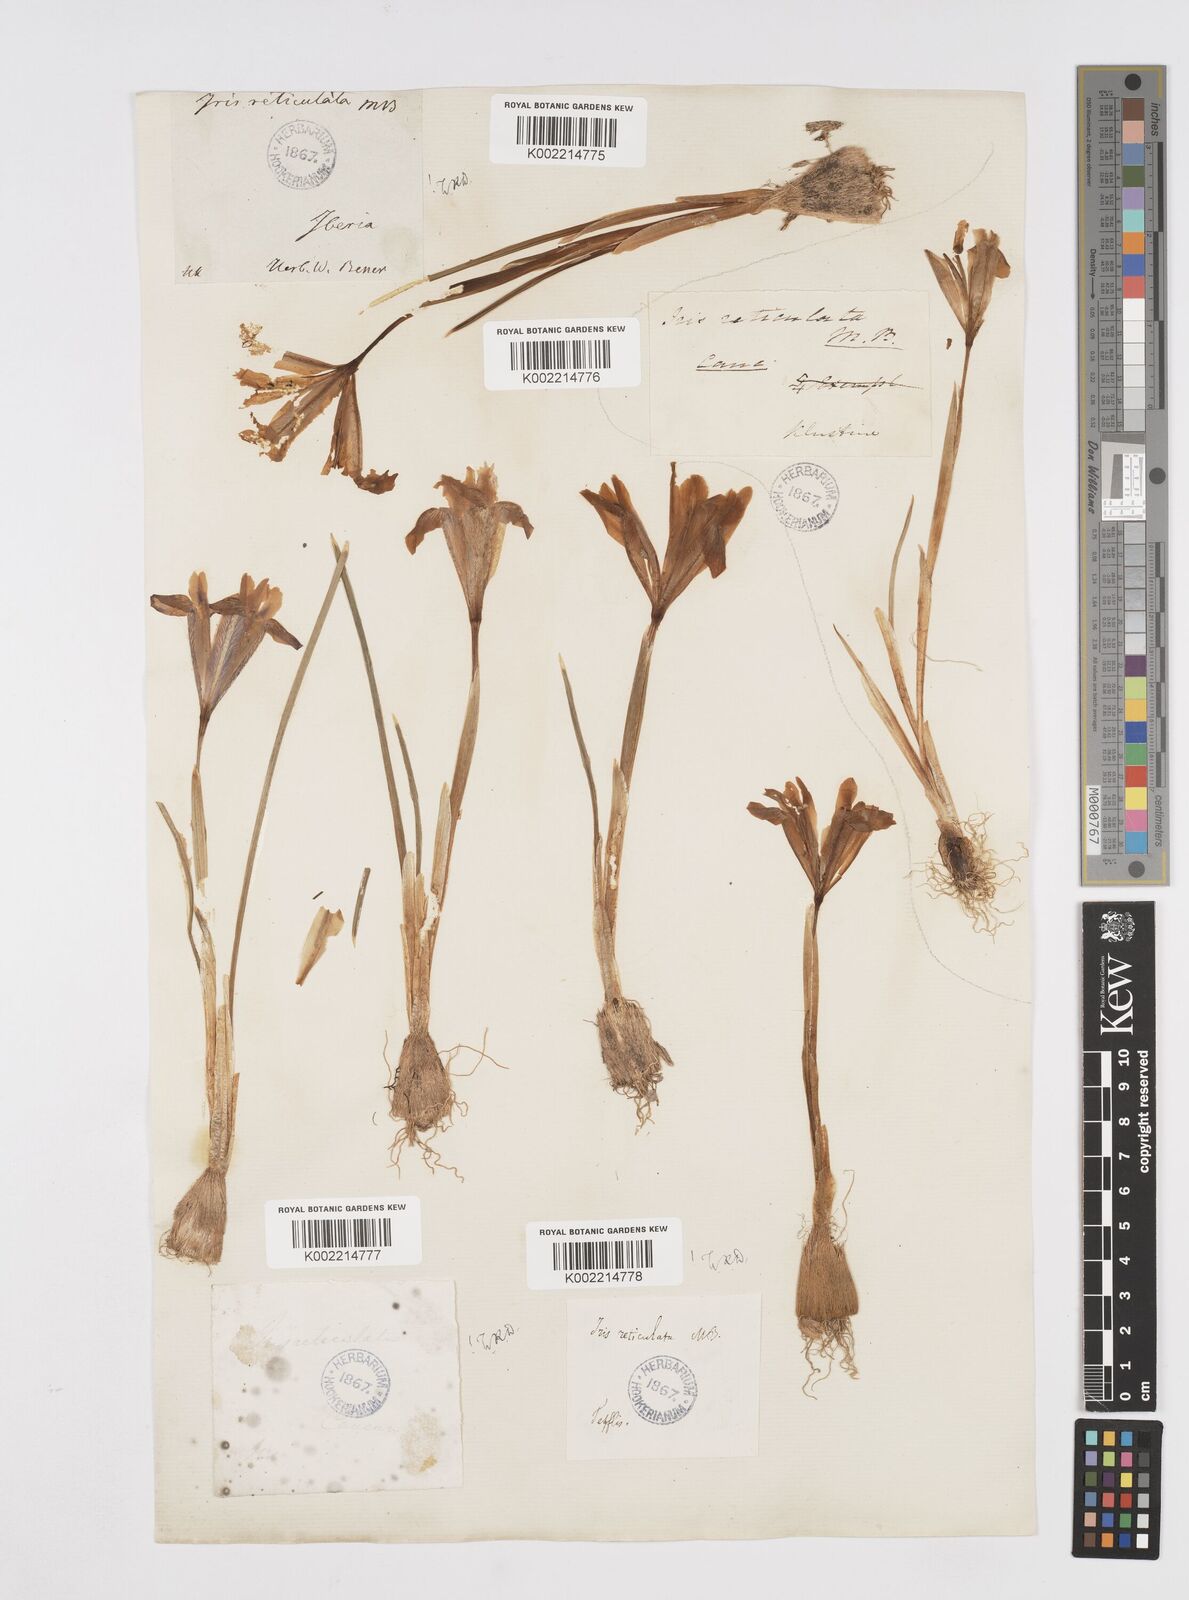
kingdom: Plantae
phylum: Tracheophyta
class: Liliopsida
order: Asparagales
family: Iridaceae
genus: Iris
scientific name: Iris reticulata
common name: Netted iris
